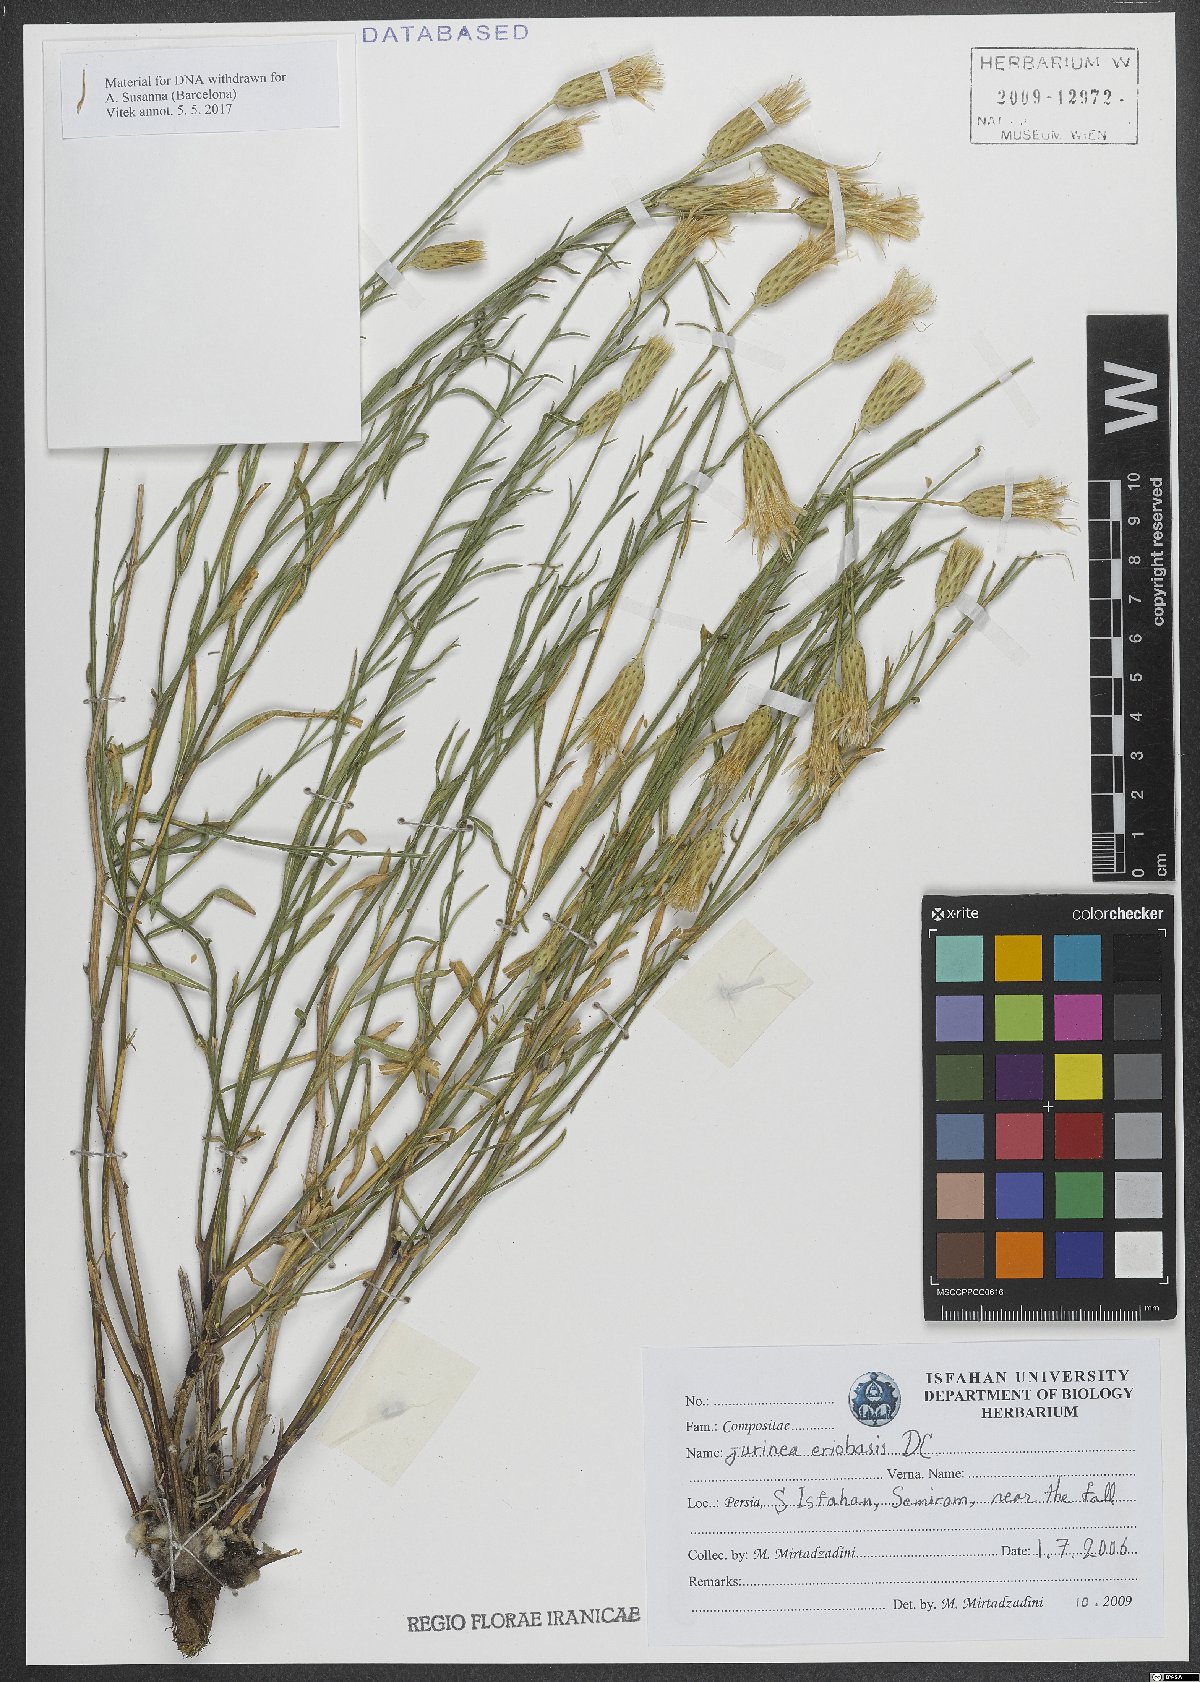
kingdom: Plantae
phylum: Tracheophyta
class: Magnoliopsida
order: Asterales
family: Asteraceae
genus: Jurinea
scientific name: Jurinea eriobasis
